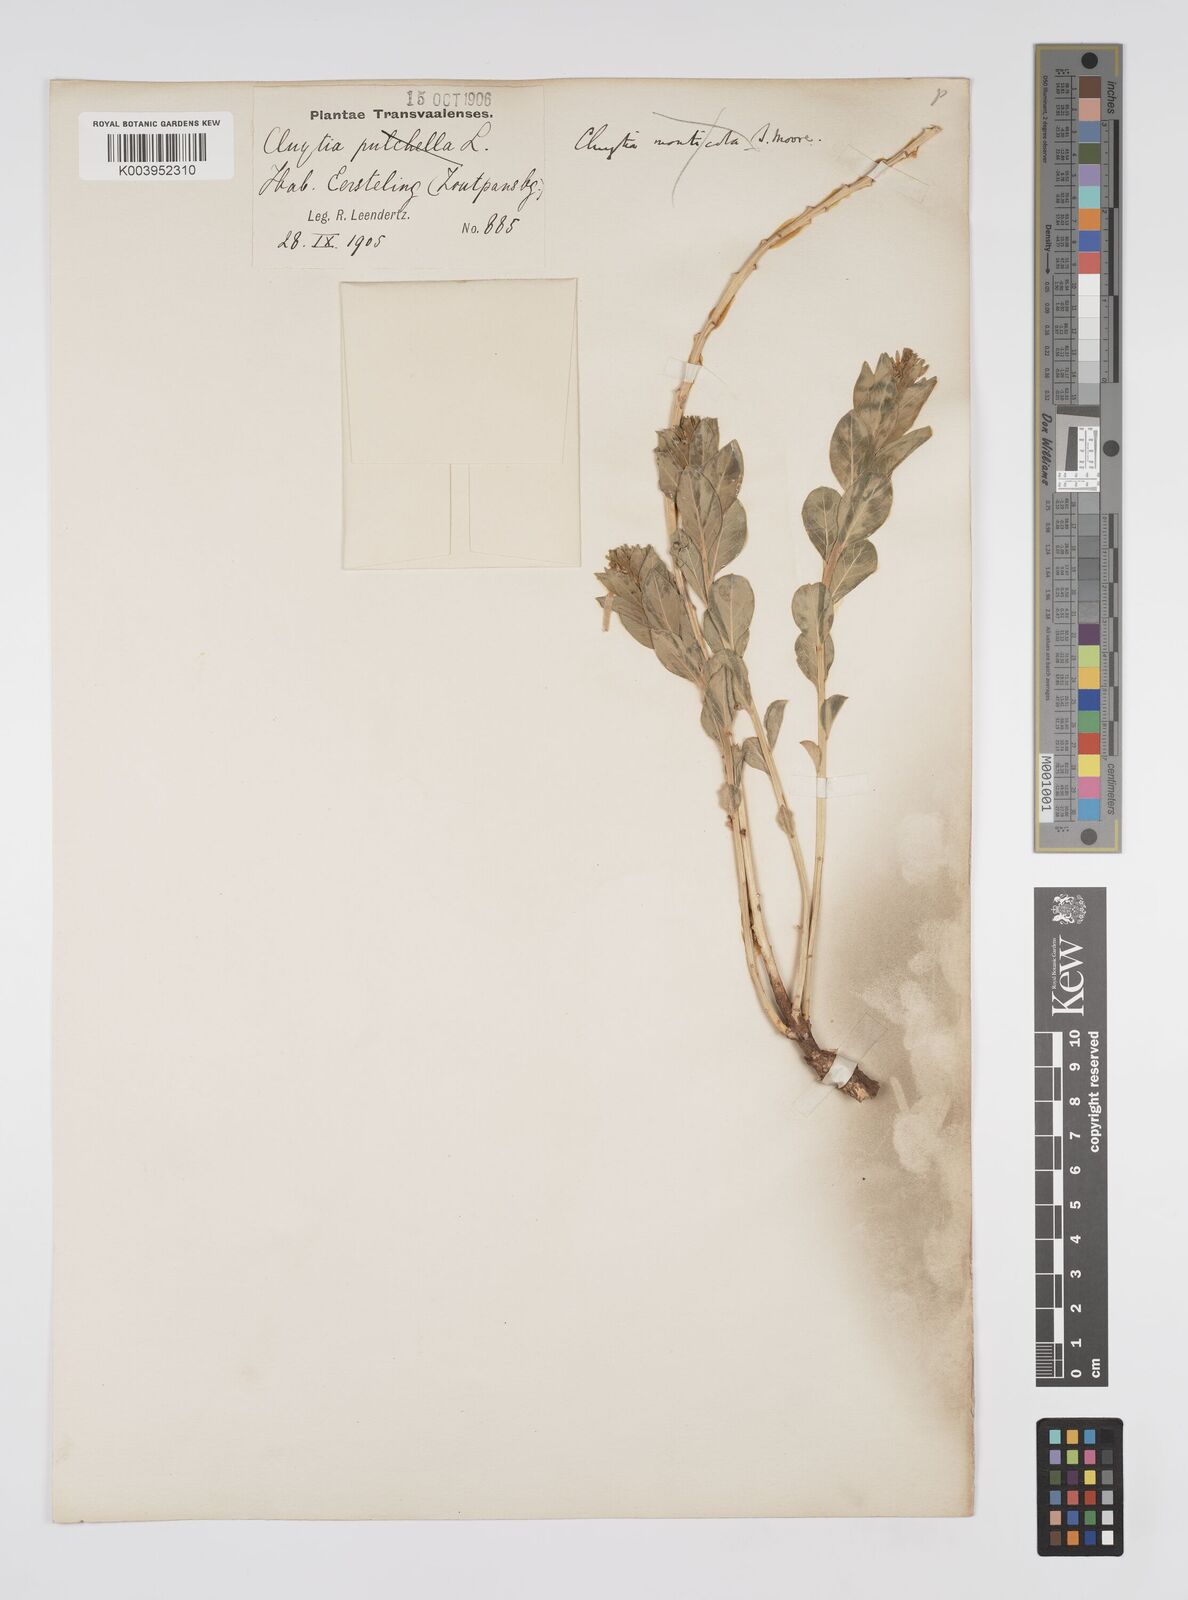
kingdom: Plantae
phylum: Tracheophyta
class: Magnoliopsida
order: Malpighiales
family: Peraceae
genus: Clutia
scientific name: Clutia
